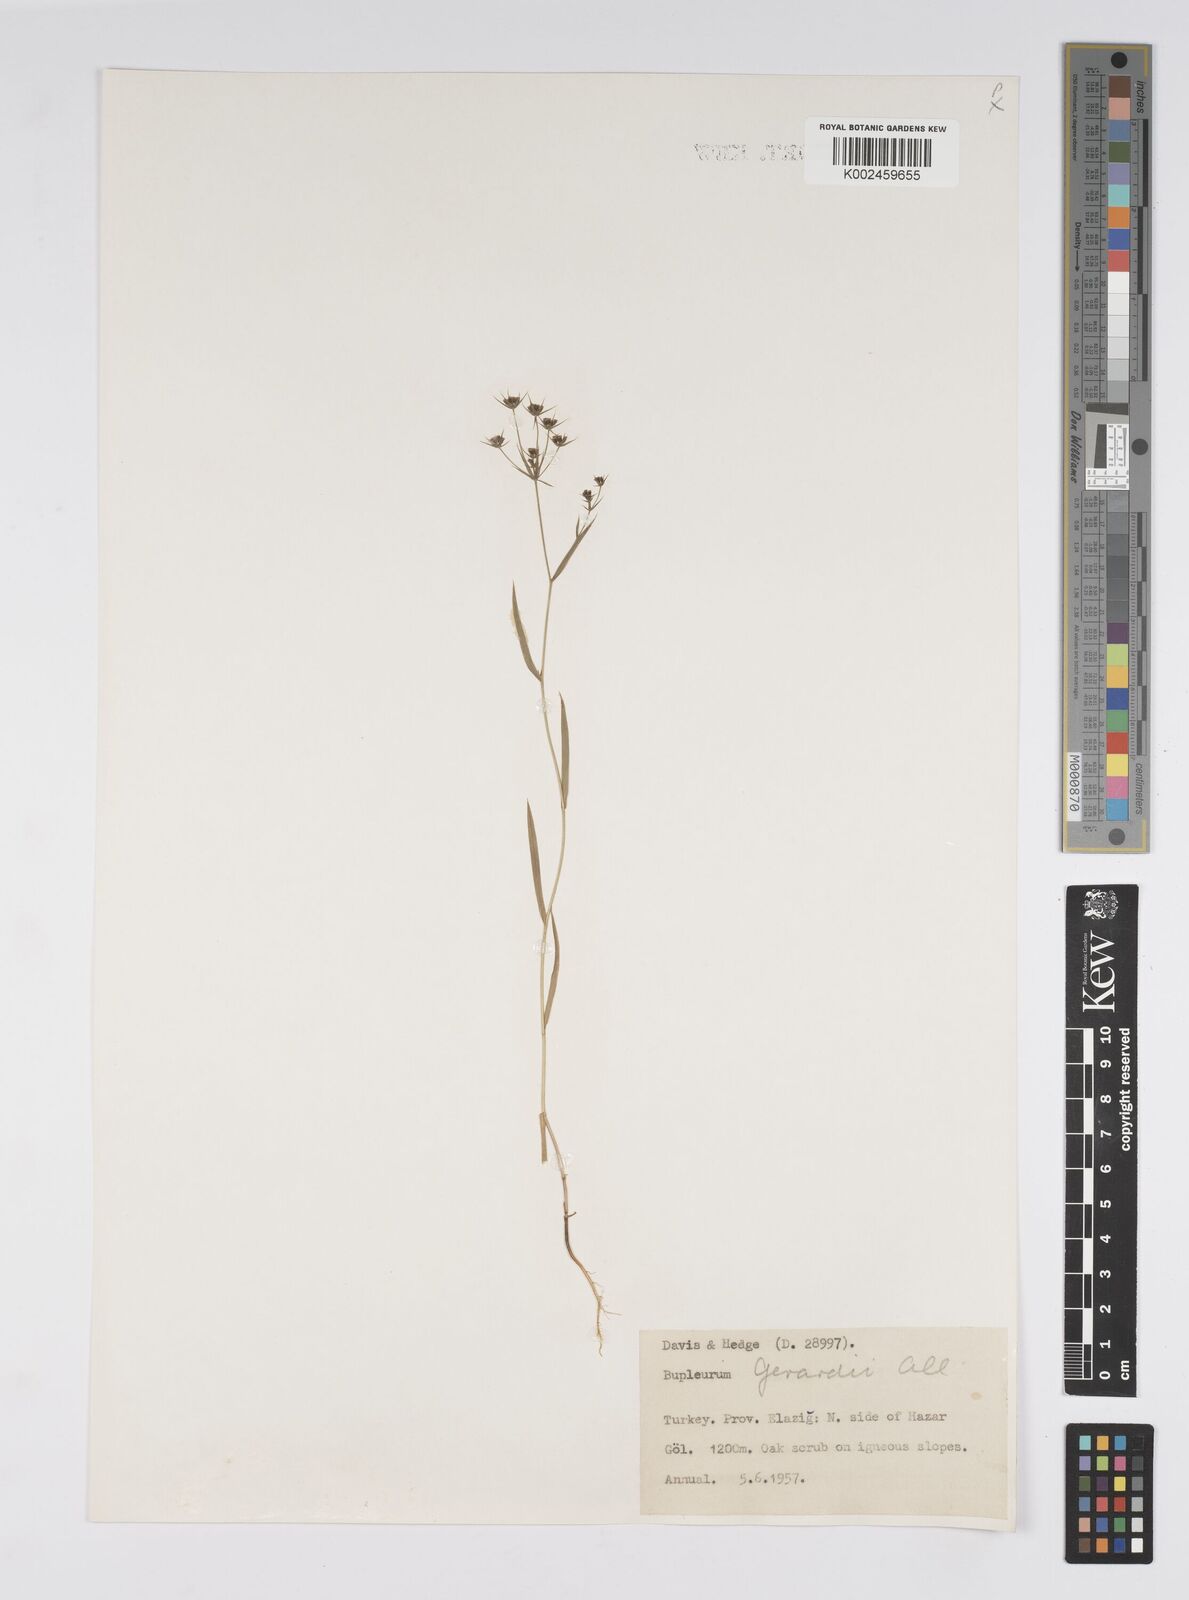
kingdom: Plantae
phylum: Tracheophyta
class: Magnoliopsida
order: Apiales
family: Apiaceae
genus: Bupleurum
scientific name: Bupleurum gerardi
